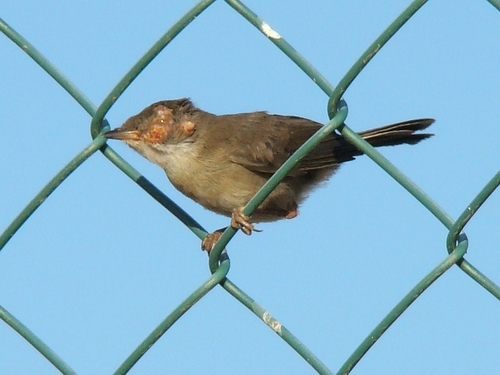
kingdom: Animalia
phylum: Chordata
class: Aves
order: Passeriformes
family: Sylviidae
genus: Sylvia
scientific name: Sylvia melanocephala
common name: Sardinian warbler
